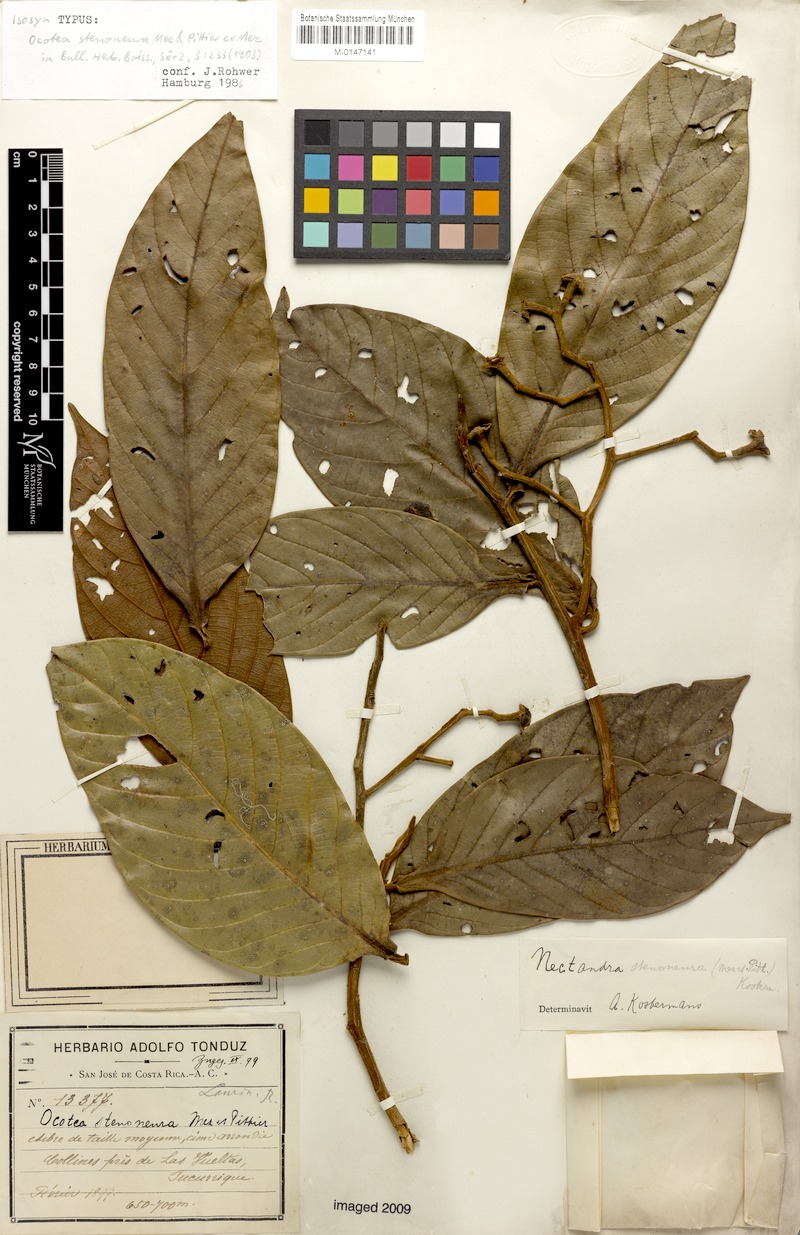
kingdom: Plantae
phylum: Tracheophyta
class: Magnoliopsida
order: Laurales
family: Lauraceae
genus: Ocotea
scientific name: Ocotea stenoneura
